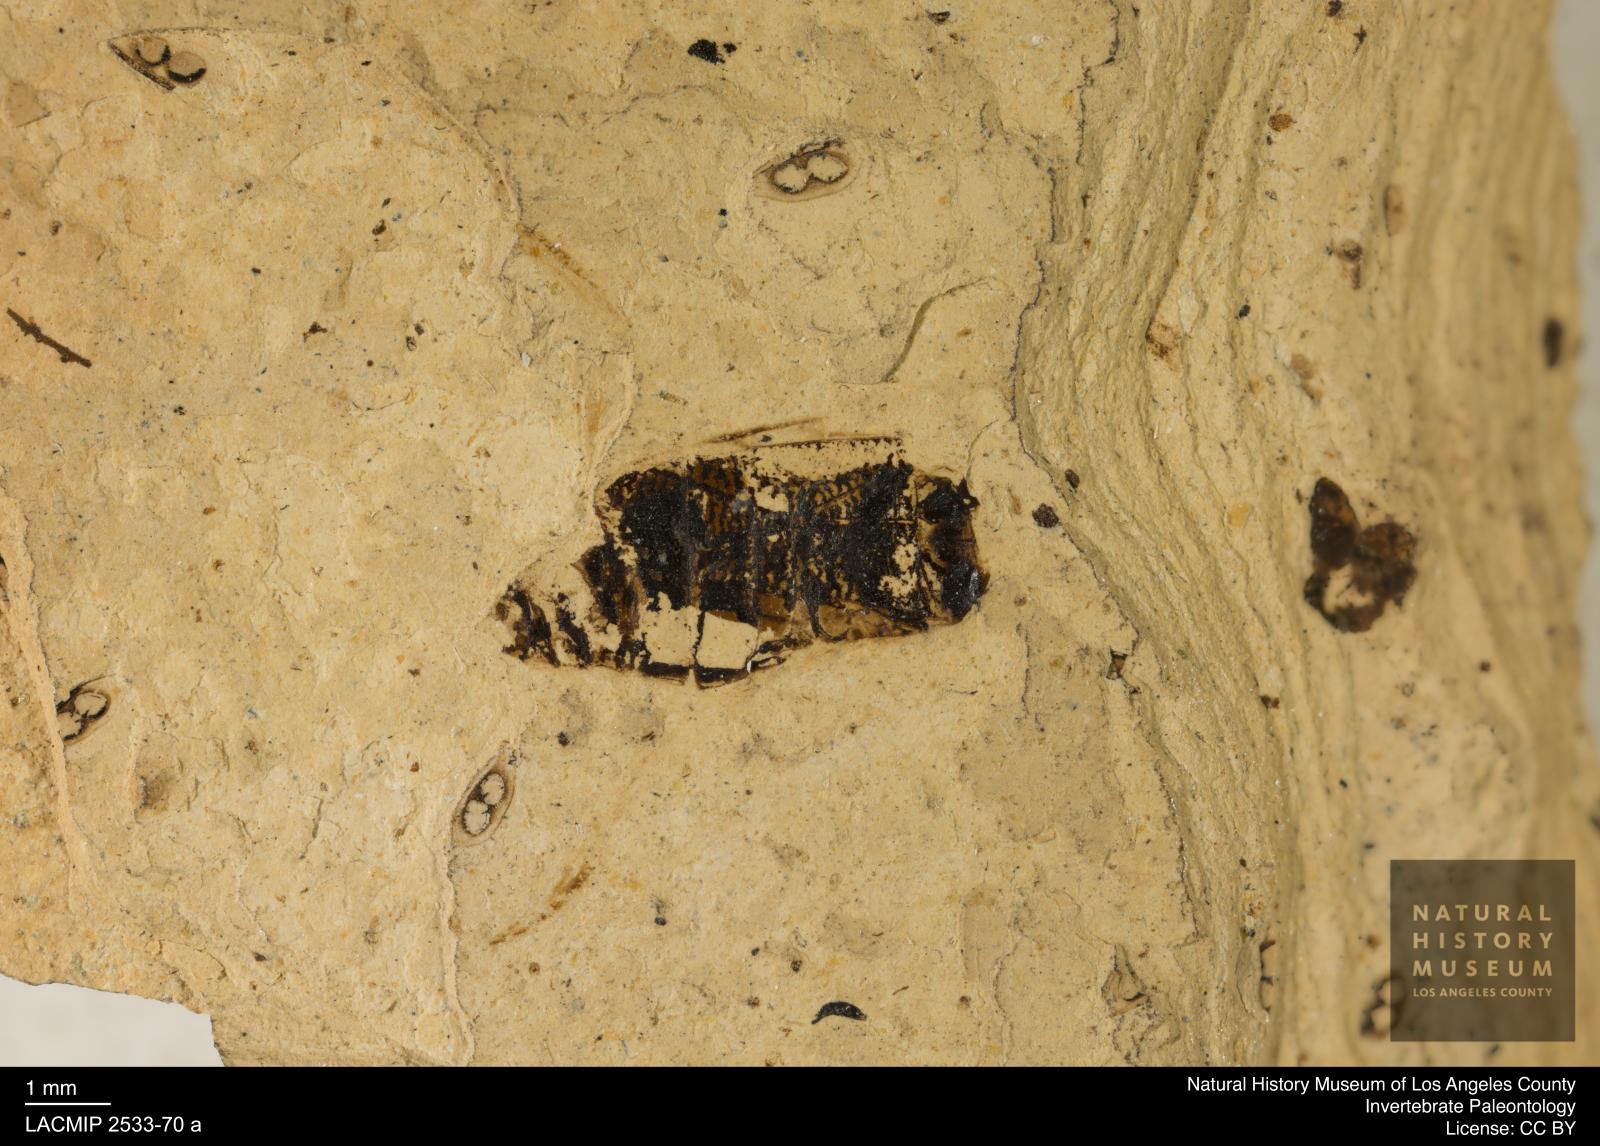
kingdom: Animalia
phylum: Arthropoda
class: Insecta
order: Hemiptera
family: Corixidae
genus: Corixa
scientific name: Corixa
